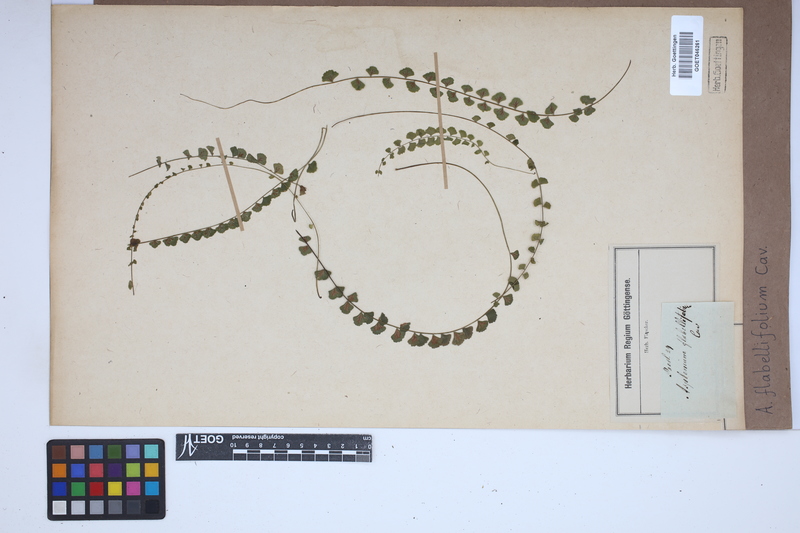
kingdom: Plantae
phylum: Tracheophyta
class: Polypodiopsida
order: Polypodiales
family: Aspleniaceae
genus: Asplenium
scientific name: Asplenium flabellifolium
